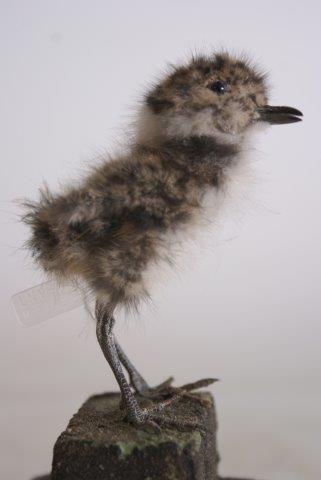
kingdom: Animalia
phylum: Chordata
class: Aves
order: Charadriiformes
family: Charadriidae
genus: Vanellus
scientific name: Vanellus vanellus
